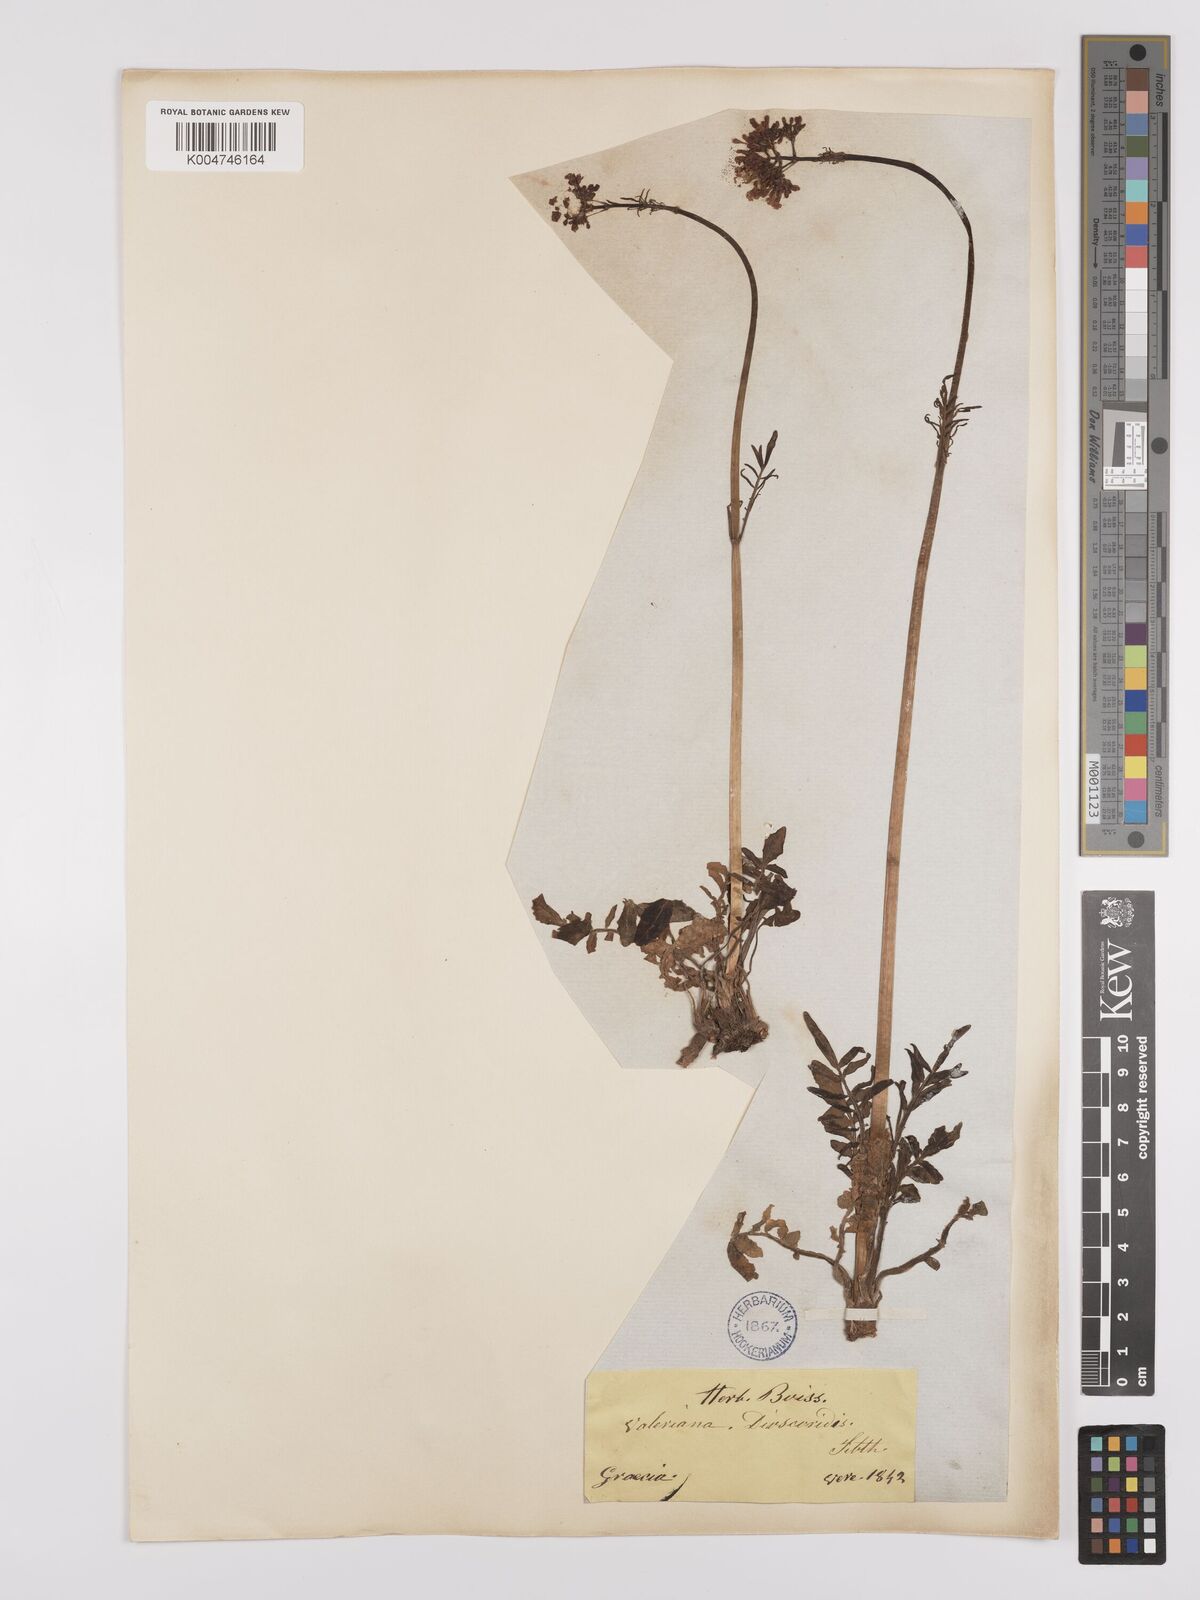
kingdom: Plantae
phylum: Tracheophyta
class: Magnoliopsida
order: Dipsacales
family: Caprifoliaceae
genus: Valeriana
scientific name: Valeriana dioscoridis
